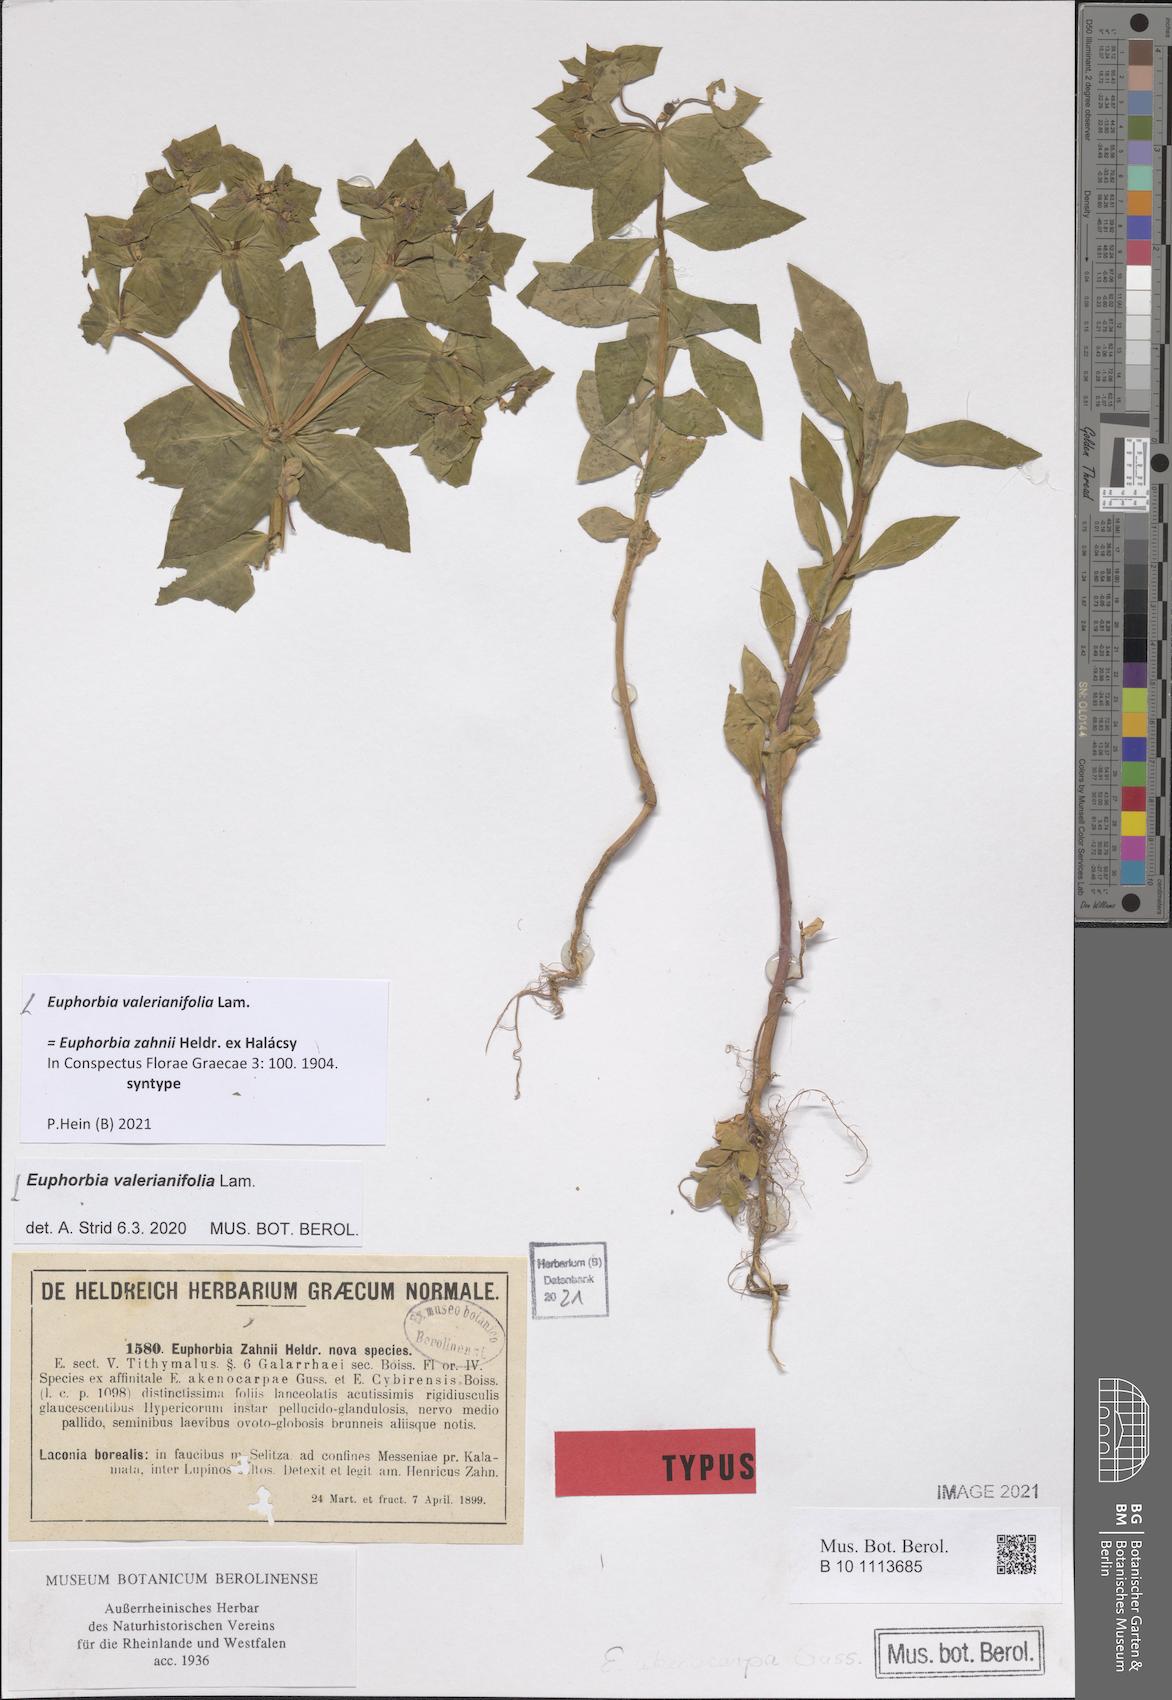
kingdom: Plantae
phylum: Tracheophyta
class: Magnoliopsida
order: Malpighiales
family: Euphorbiaceae
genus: Euphorbia
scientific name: Euphorbia valerianifolia
